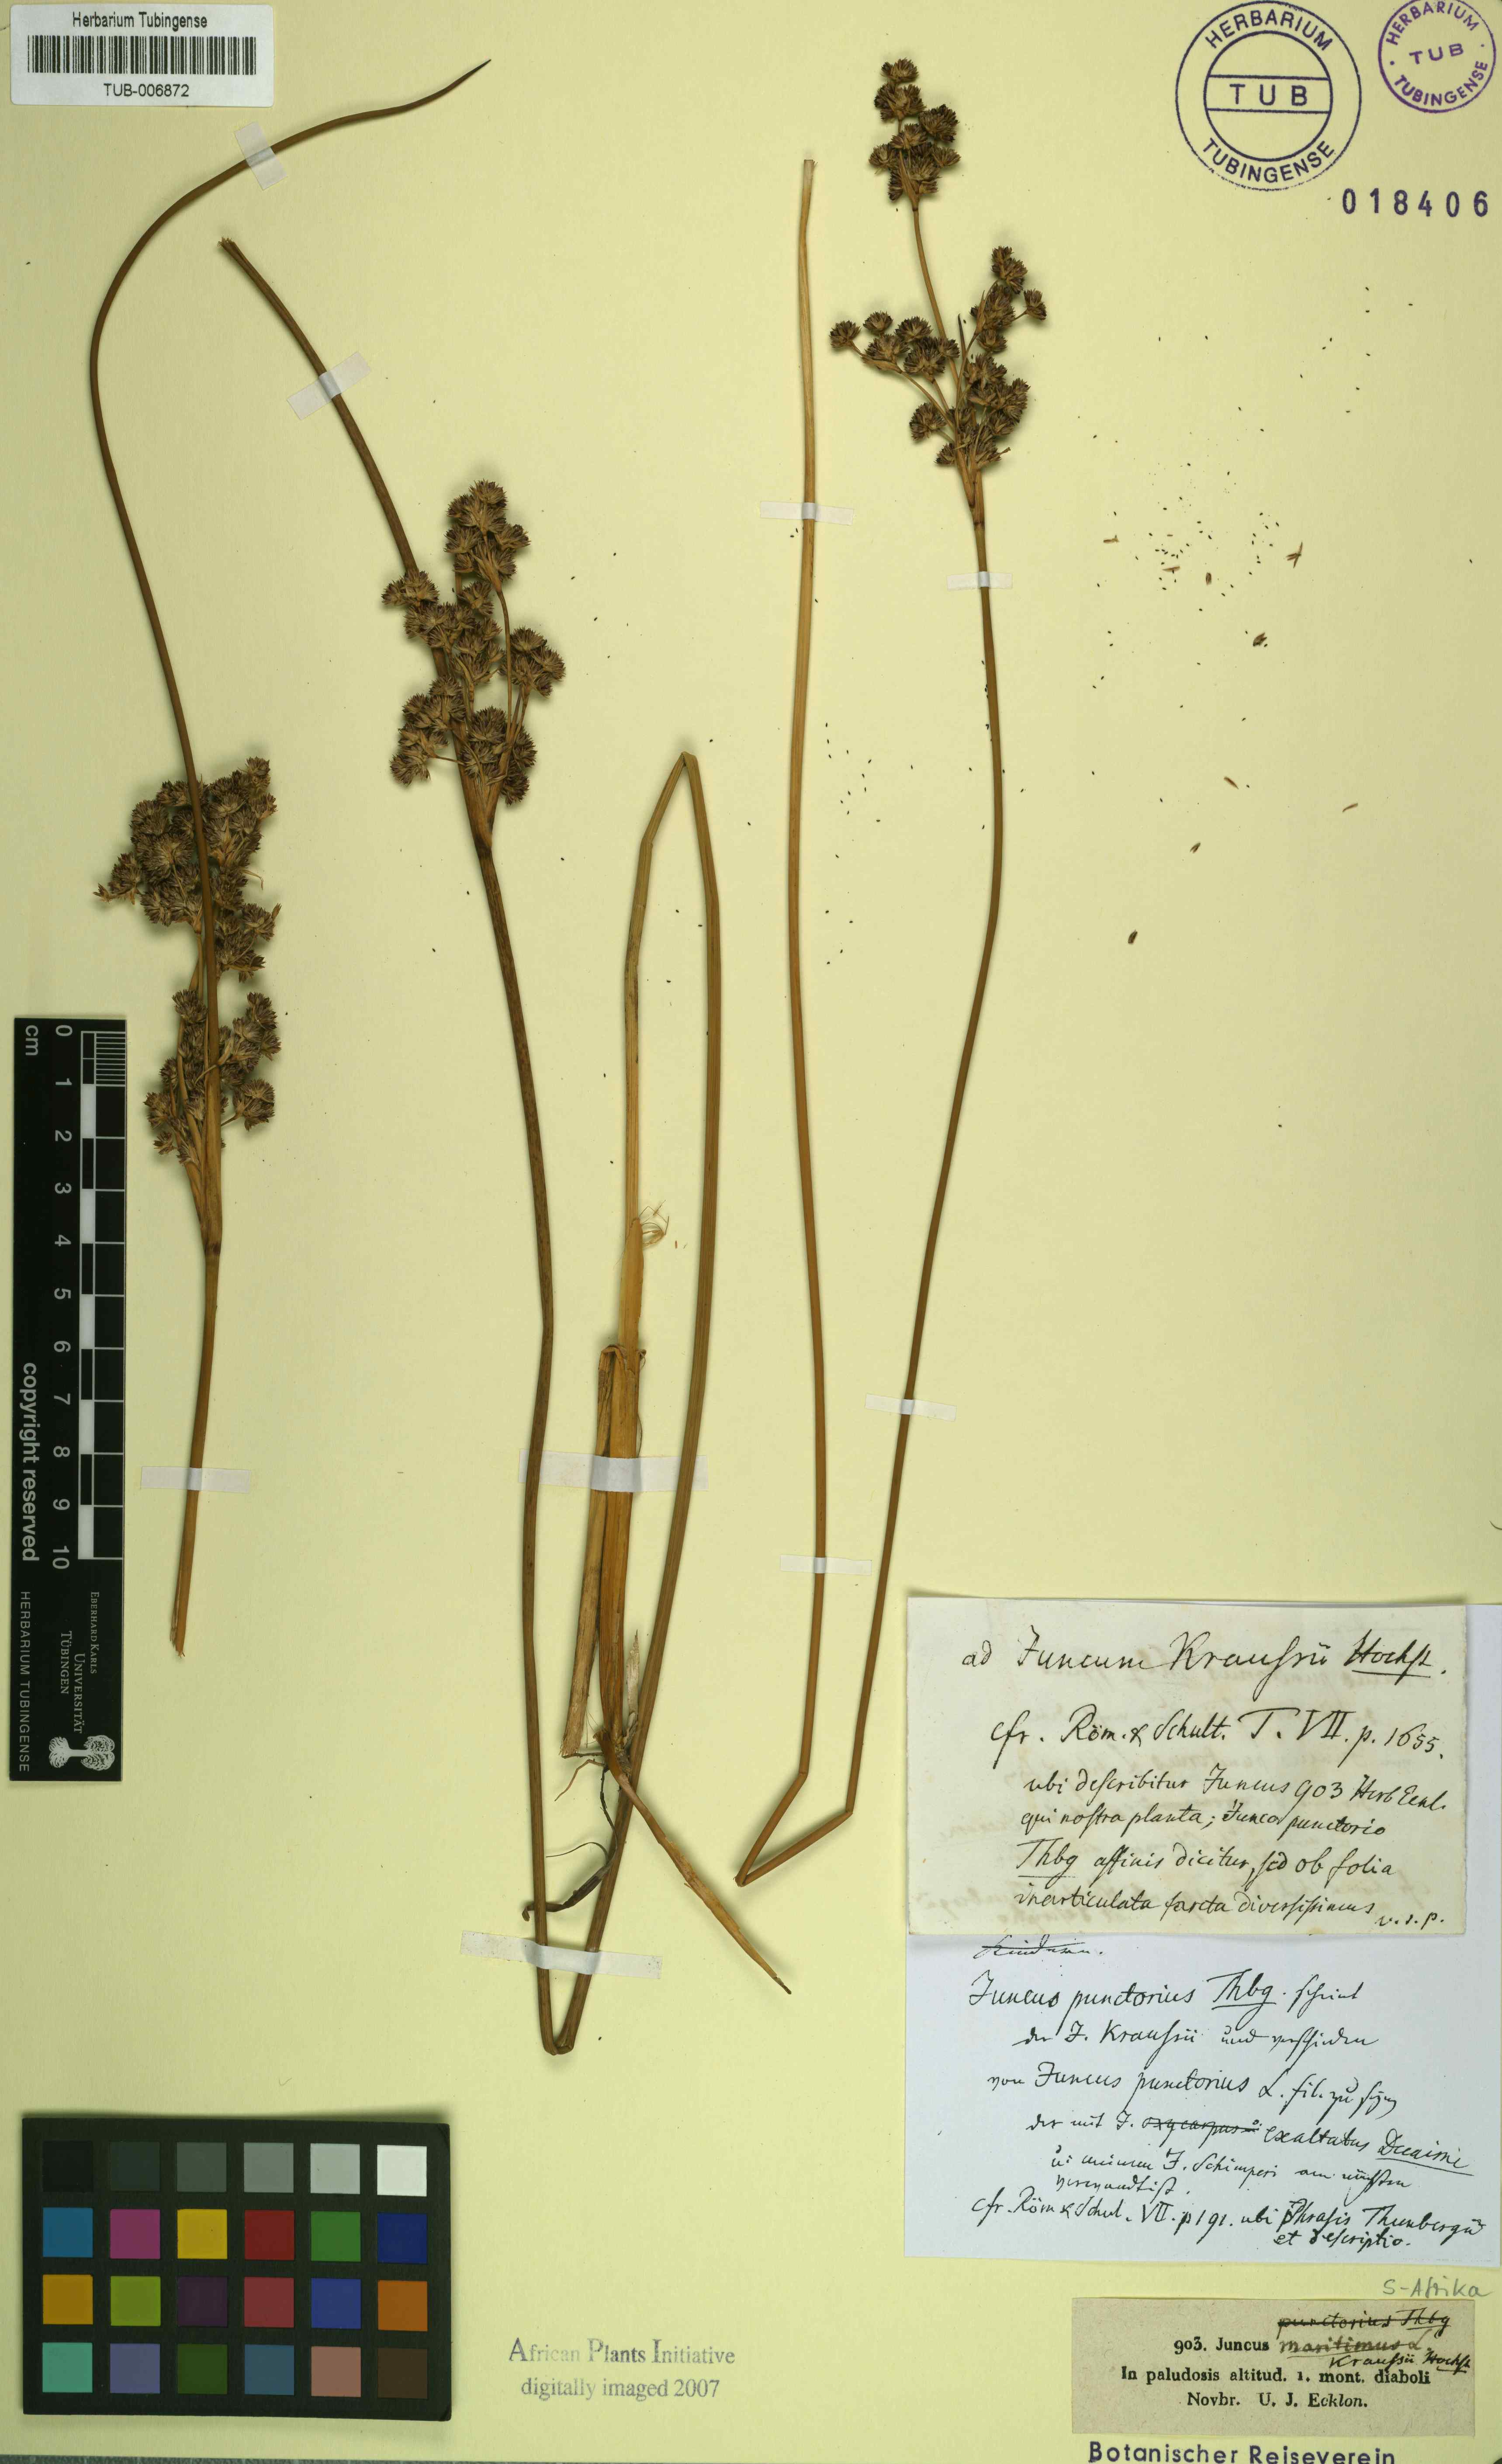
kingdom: Plantae
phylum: Tracheophyta
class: Liliopsida
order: Poales
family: Juncaceae
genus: Juncus
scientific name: Juncus kraussii
